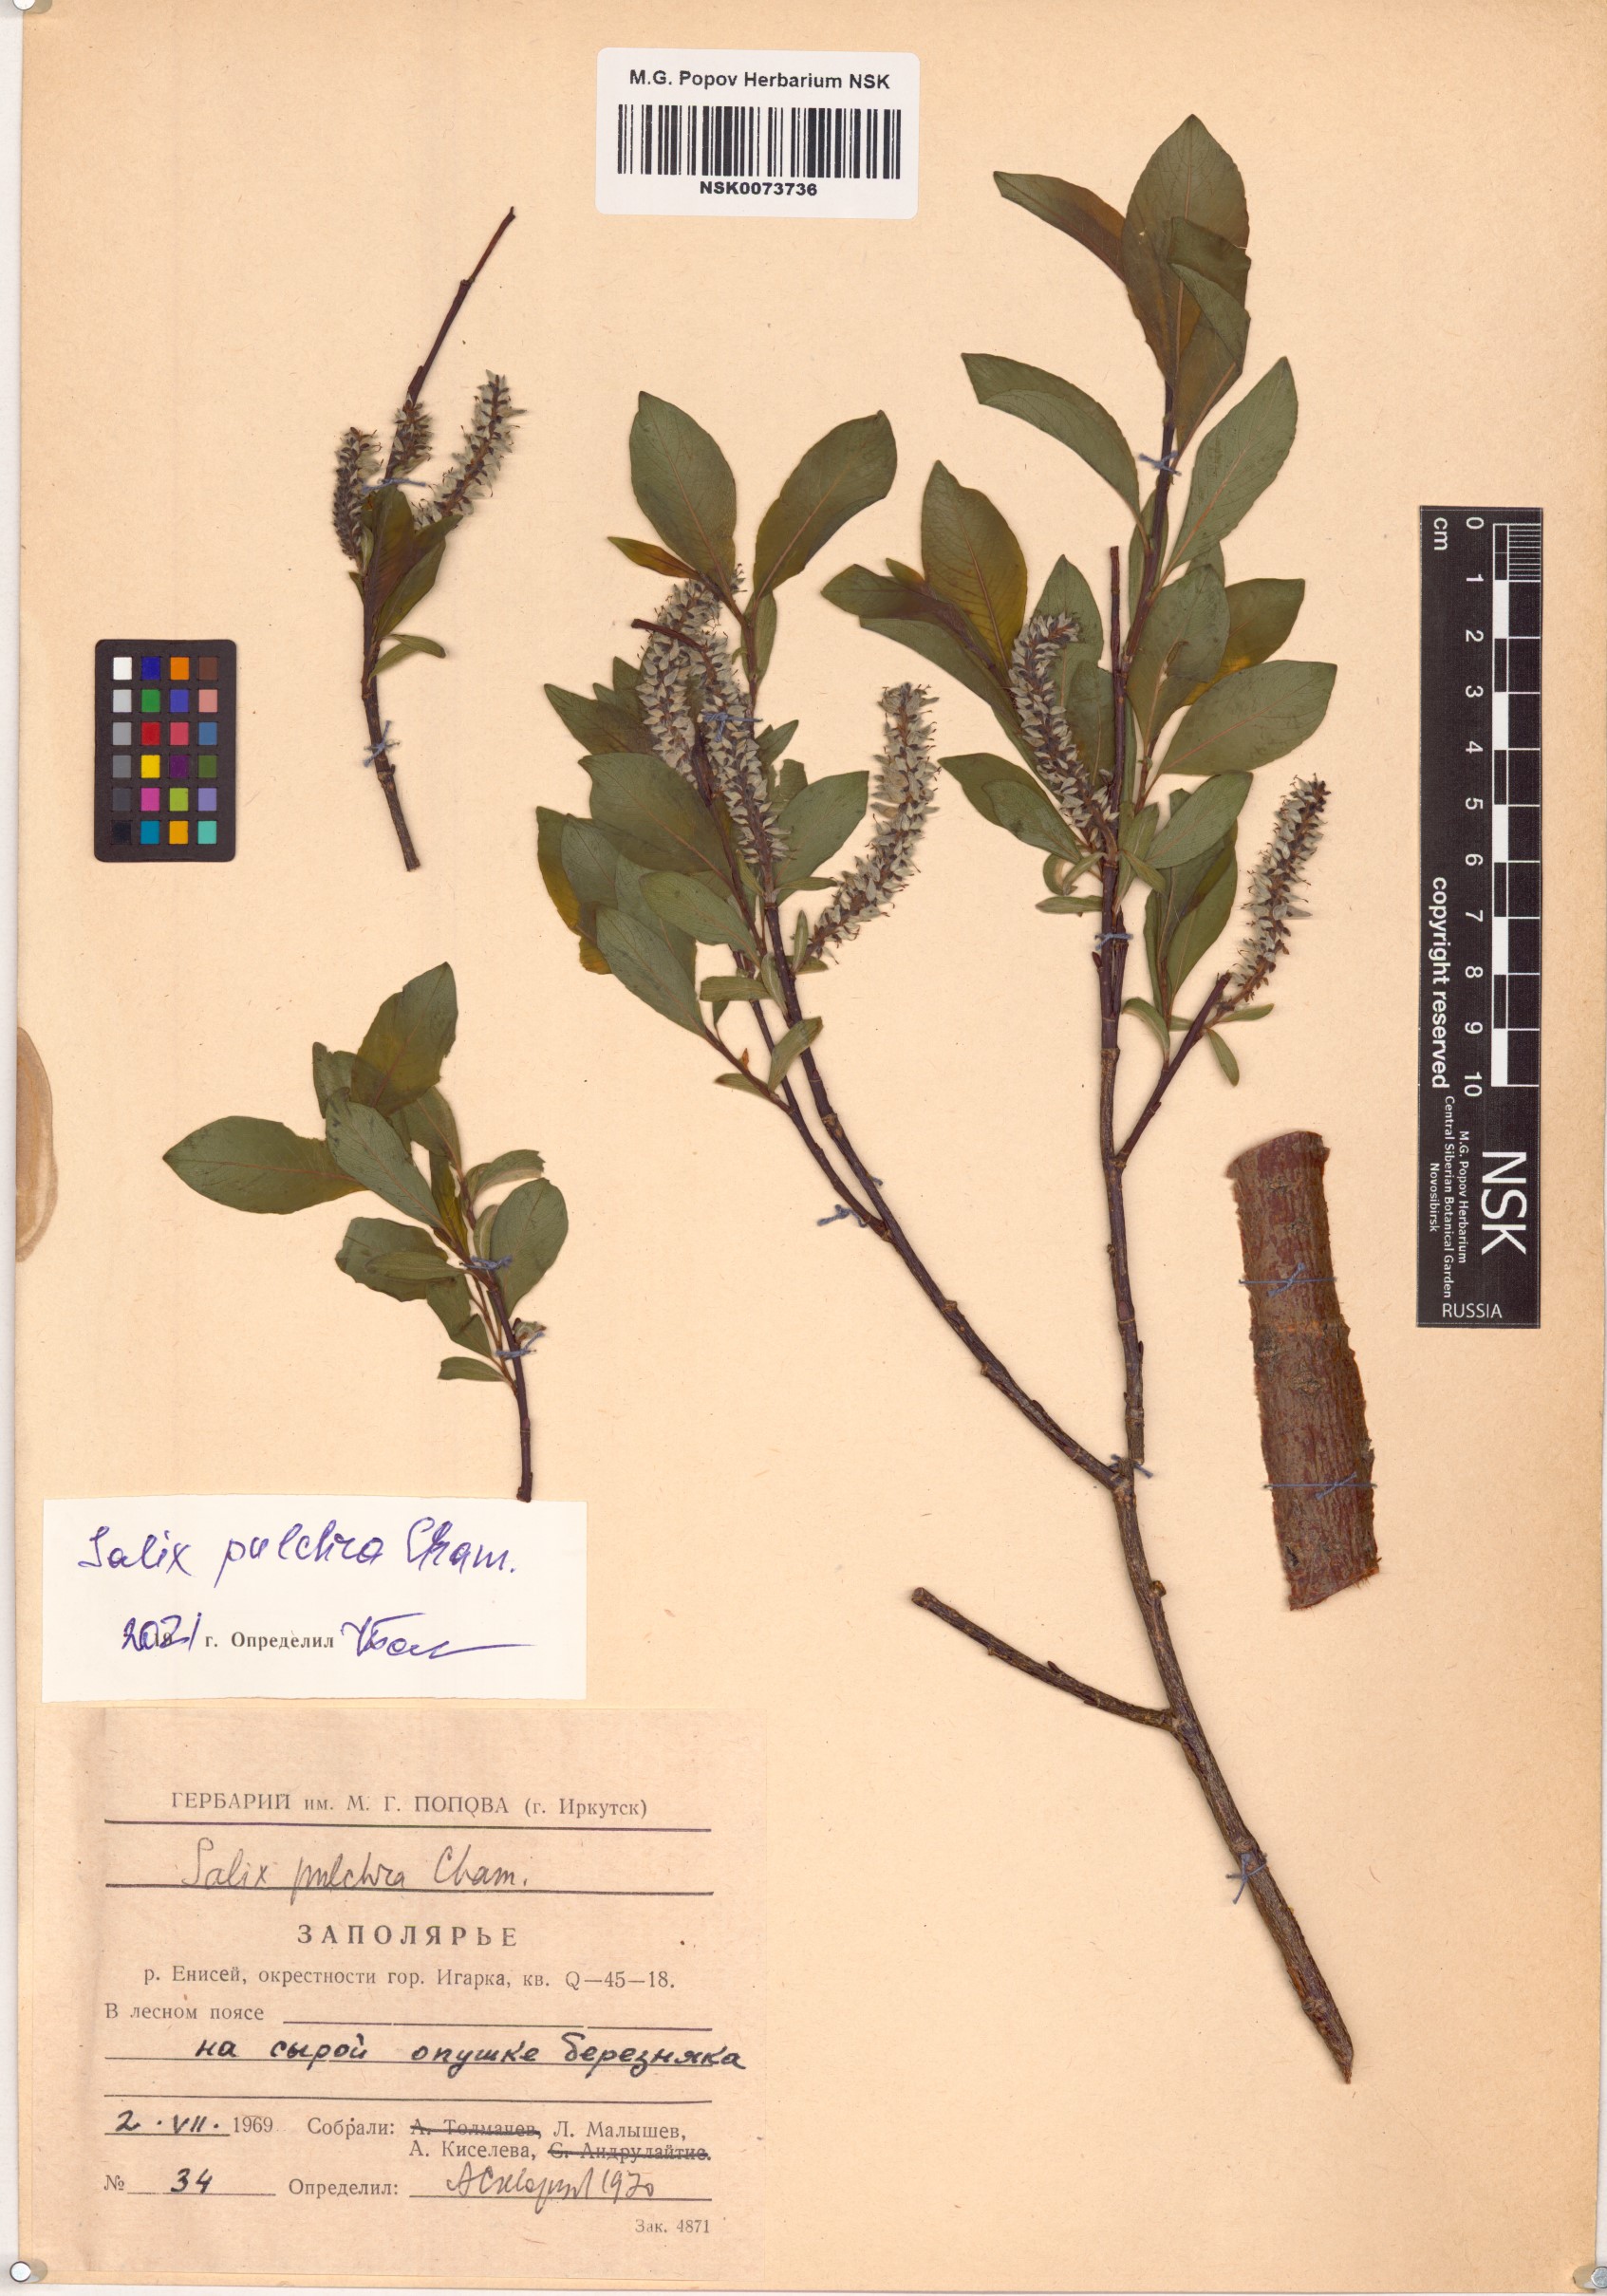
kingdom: Plantae
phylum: Tracheophyta
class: Magnoliopsida
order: Malpighiales
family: Salicaceae
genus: Salix
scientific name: Salix pulchra
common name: Diamond-leaved willow
